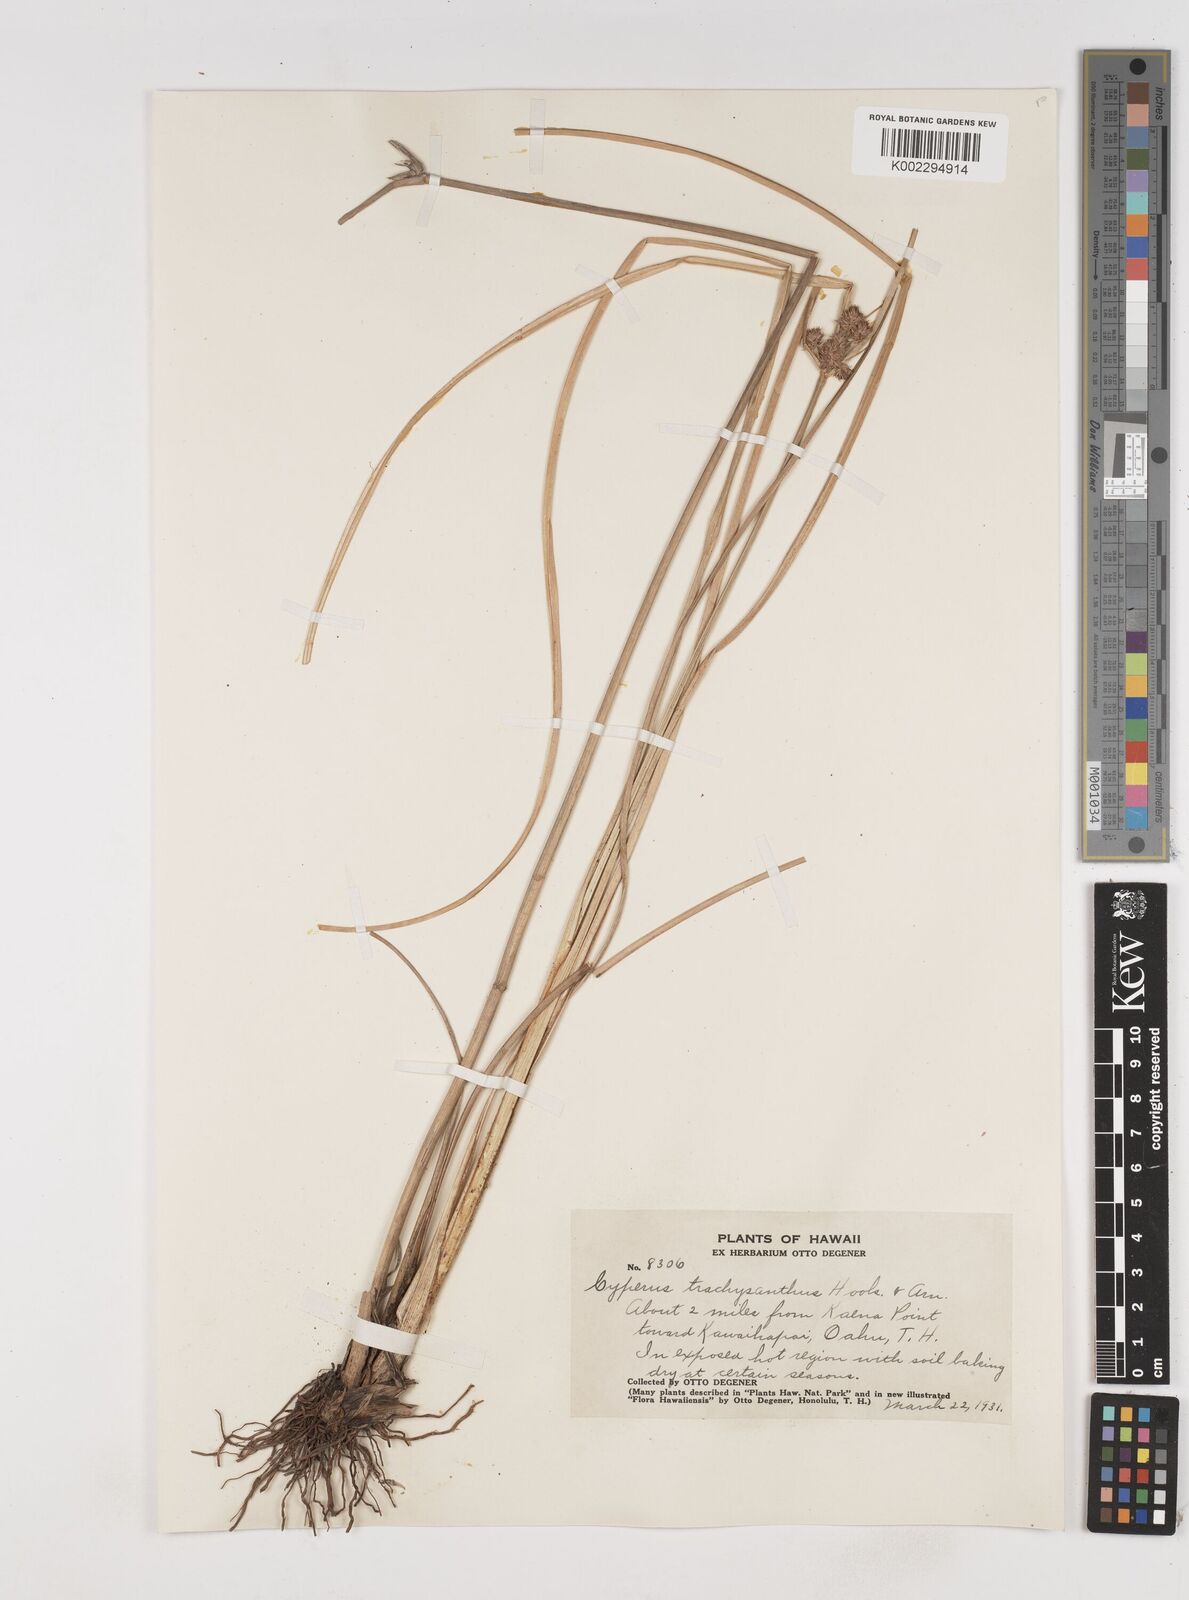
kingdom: Plantae
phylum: Tracheophyta
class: Liliopsida
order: Poales
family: Cyperaceae
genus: Cyperus
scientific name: Cyperus trachysanthos
